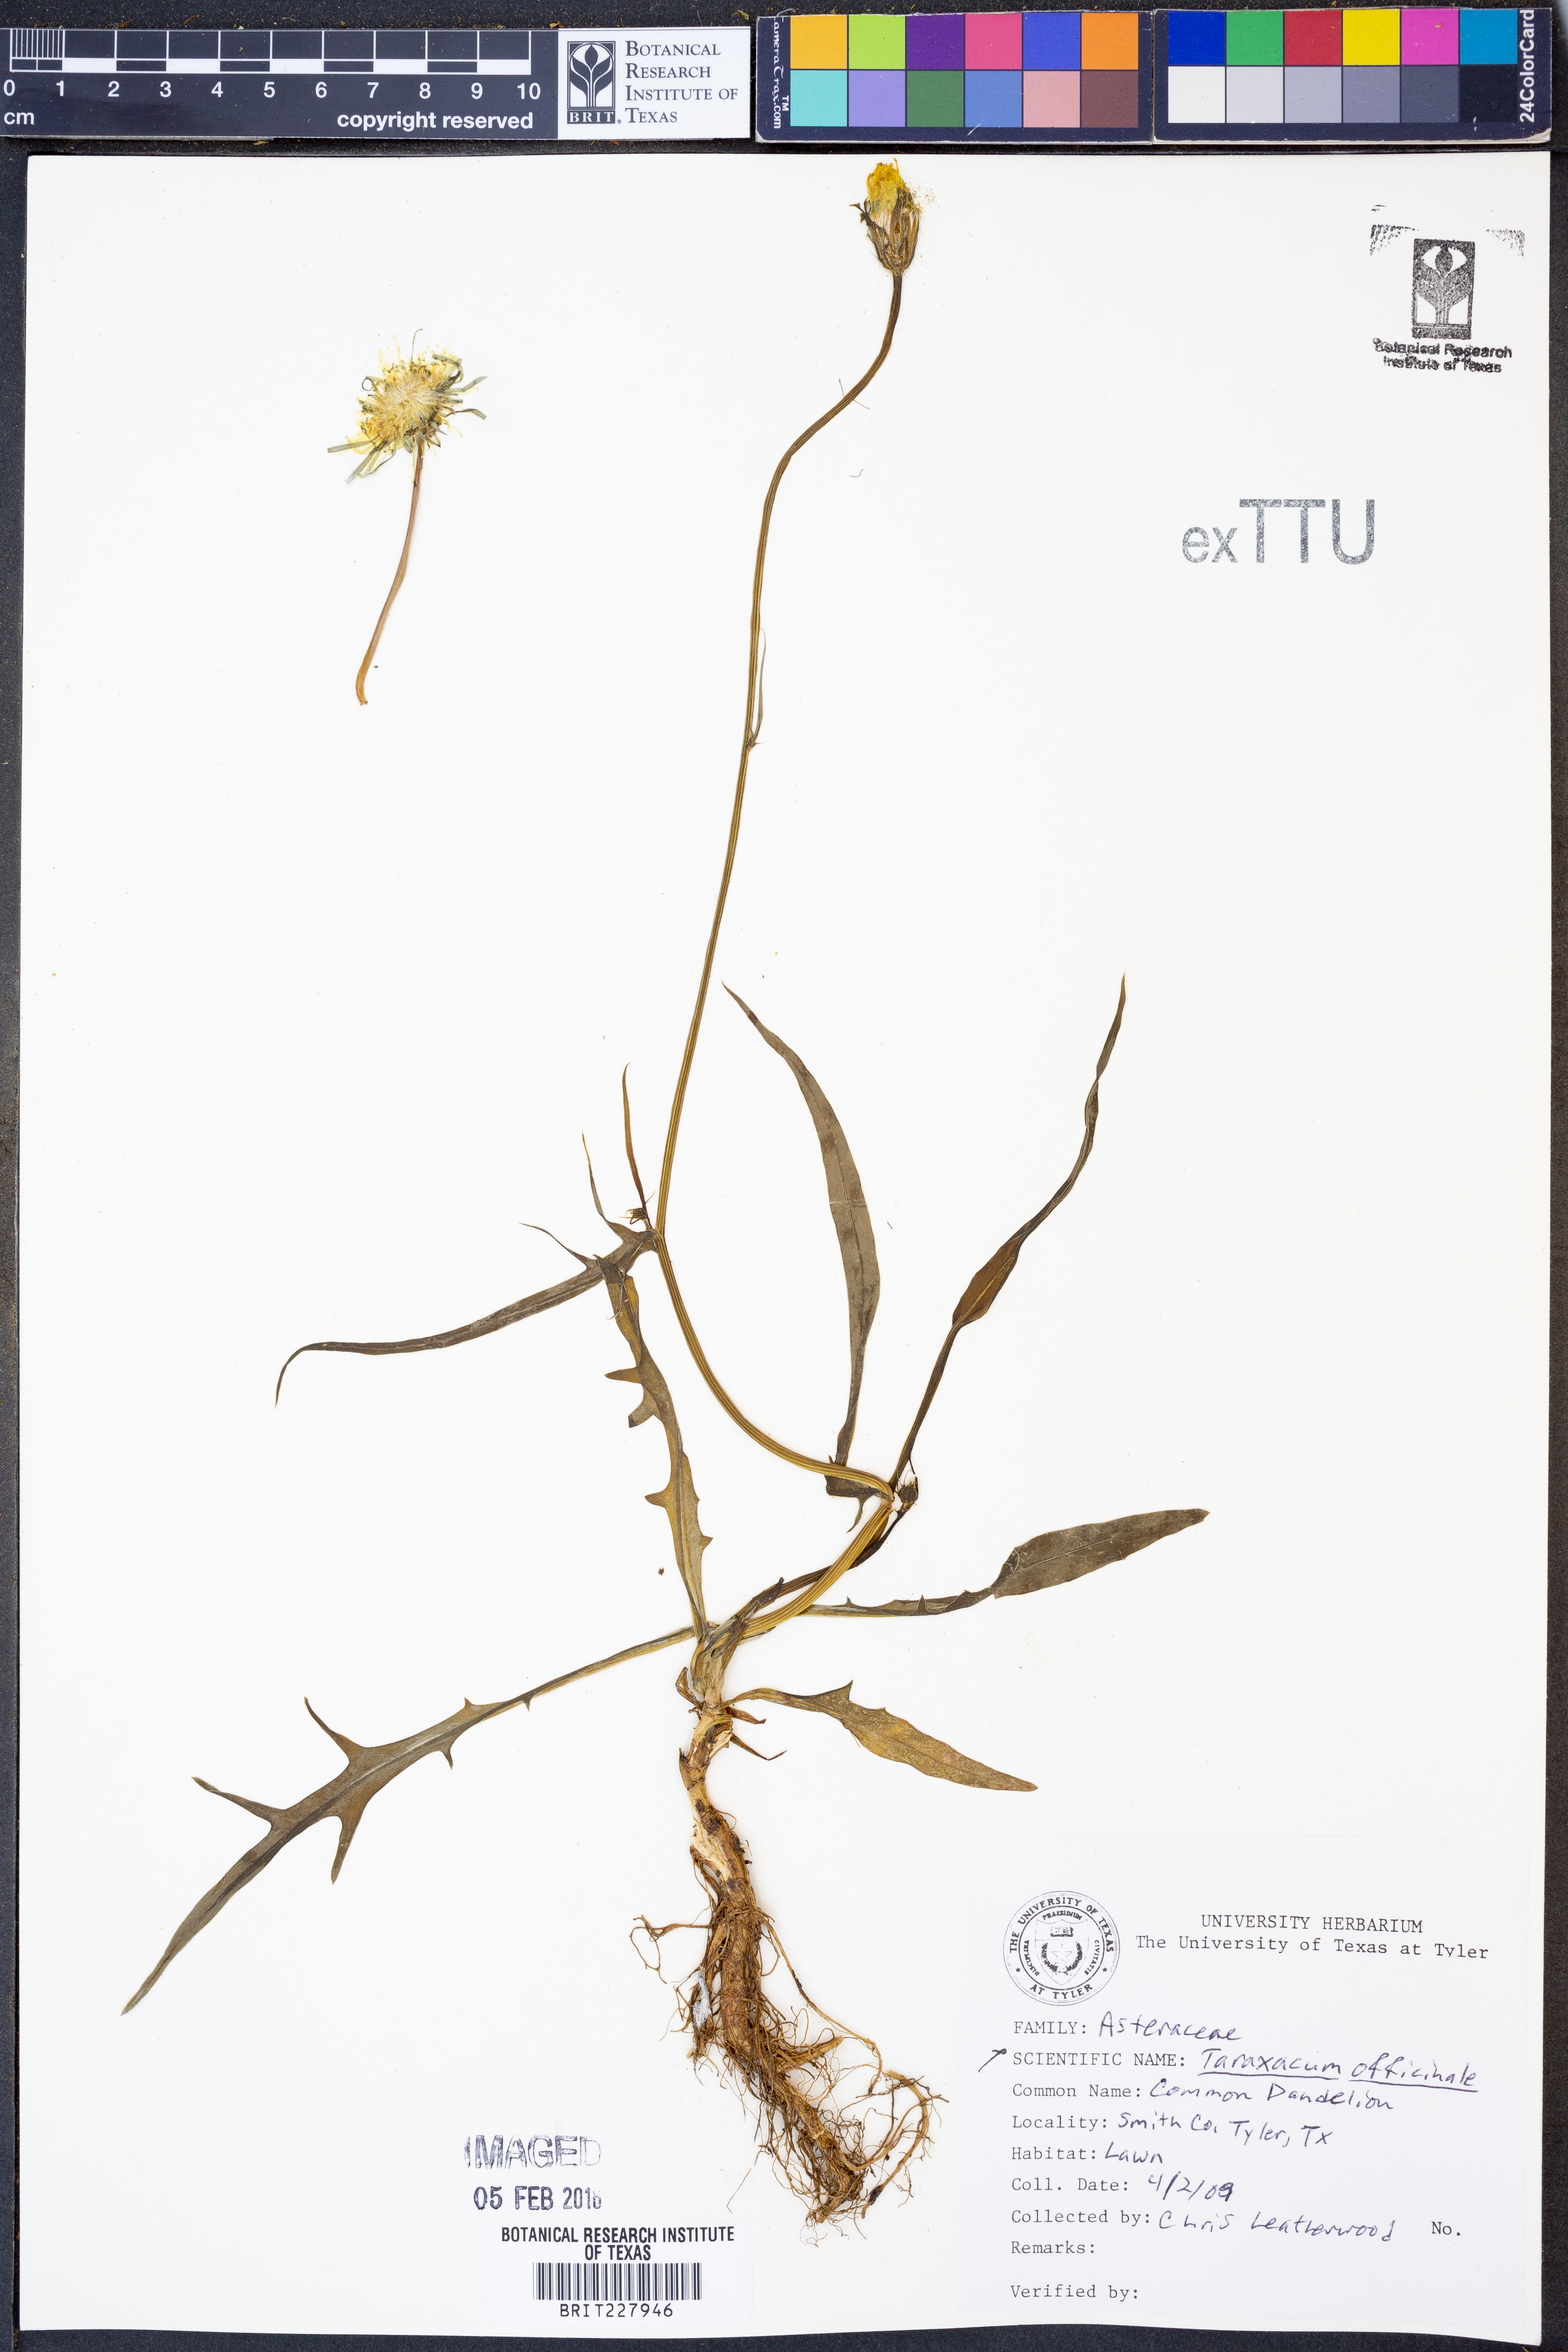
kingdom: Plantae
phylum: Tracheophyta
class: Magnoliopsida
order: Asterales
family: Asteraceae
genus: Taraxacum
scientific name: Taraxacum officinale
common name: Common dandelion
